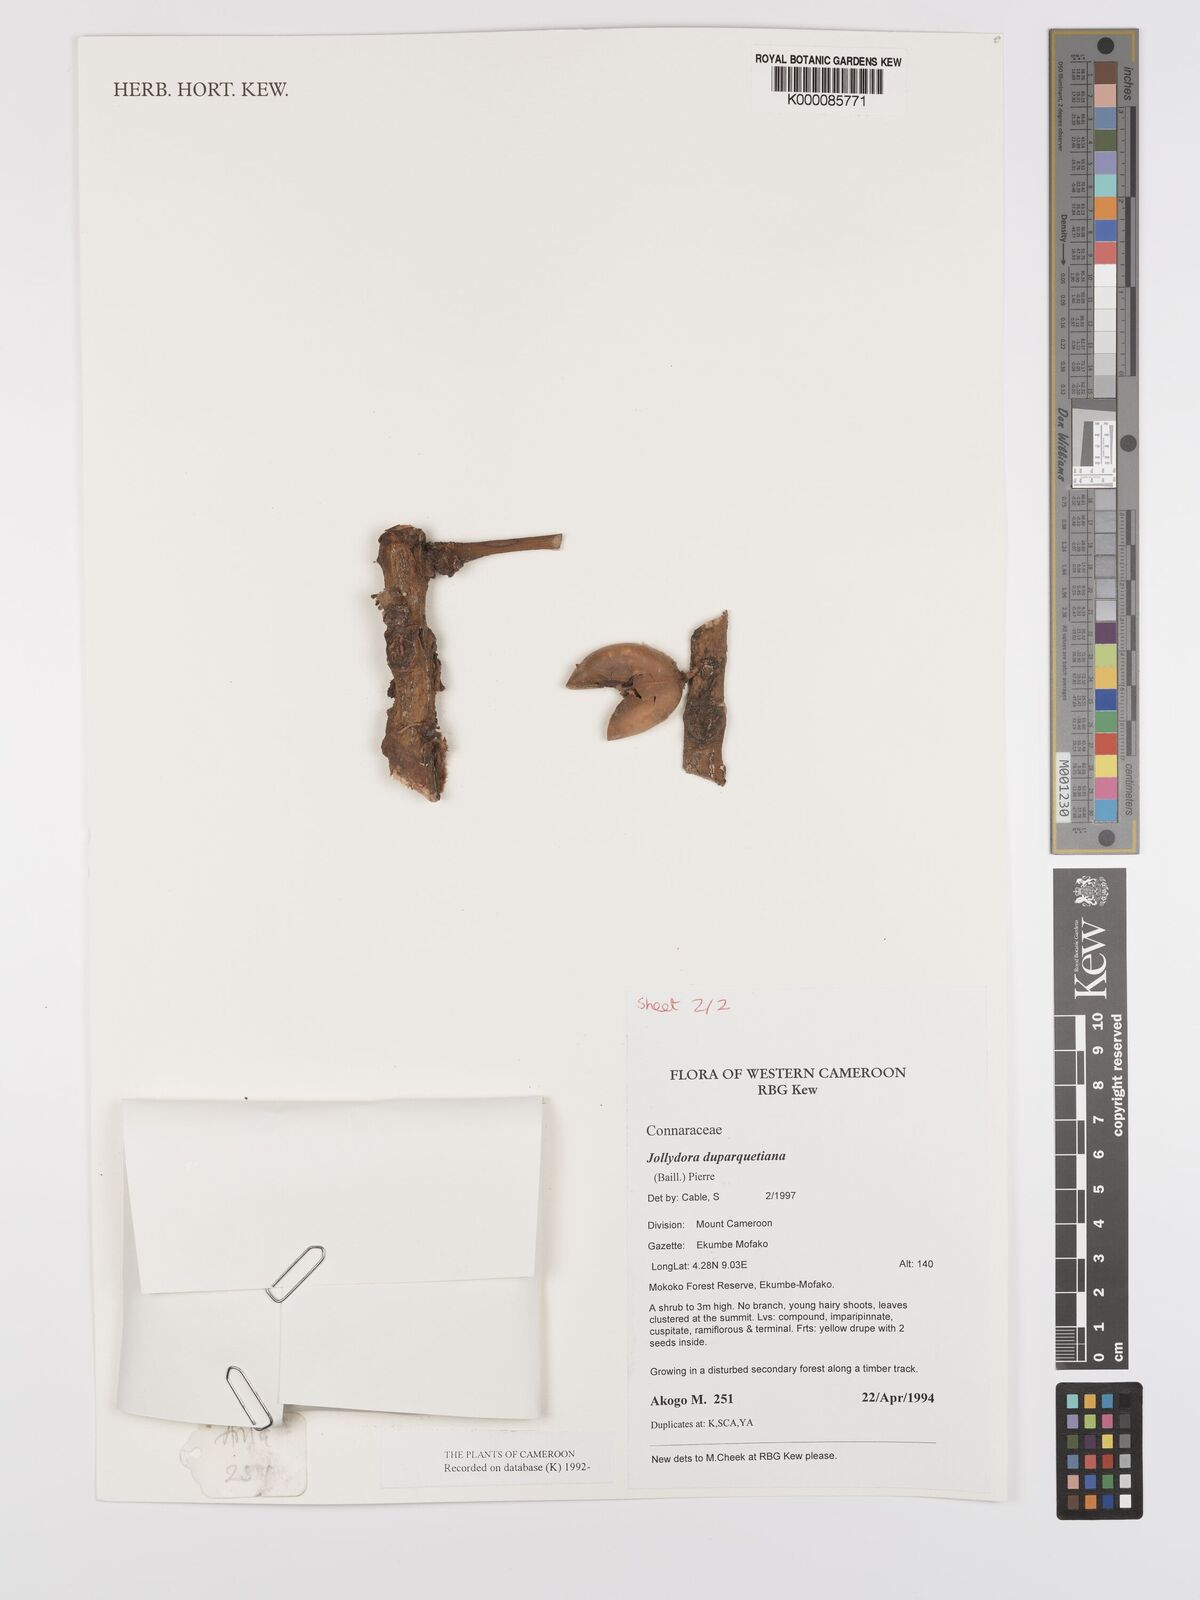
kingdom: Plantae
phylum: Tracheophyta
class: Magnoliopsida
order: Oxalidales
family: Connaraceae
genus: Jollydora
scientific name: Jollydora duparquetiana
